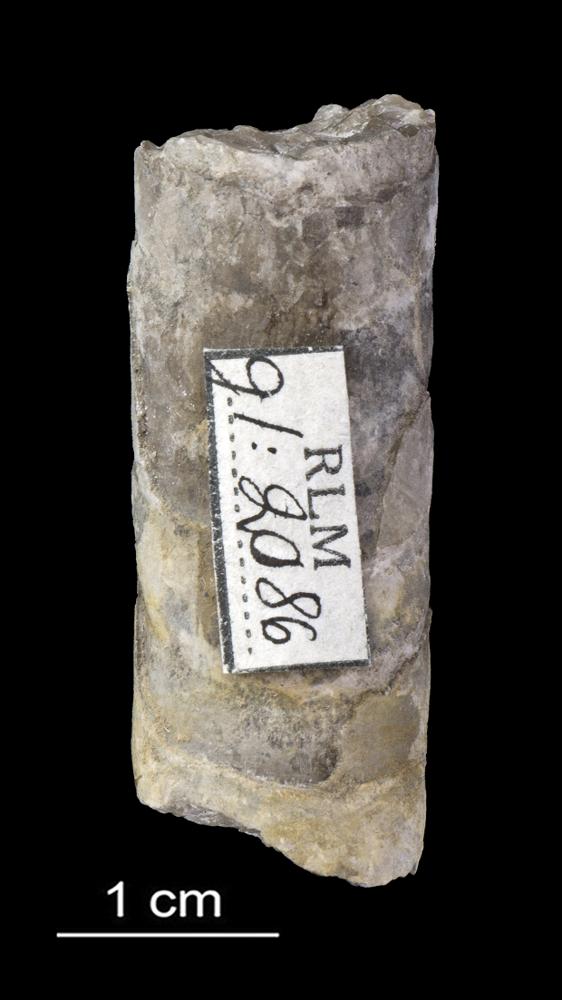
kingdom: Animalia
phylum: Mollusca
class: Cephalopoda
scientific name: Cephalopoda
